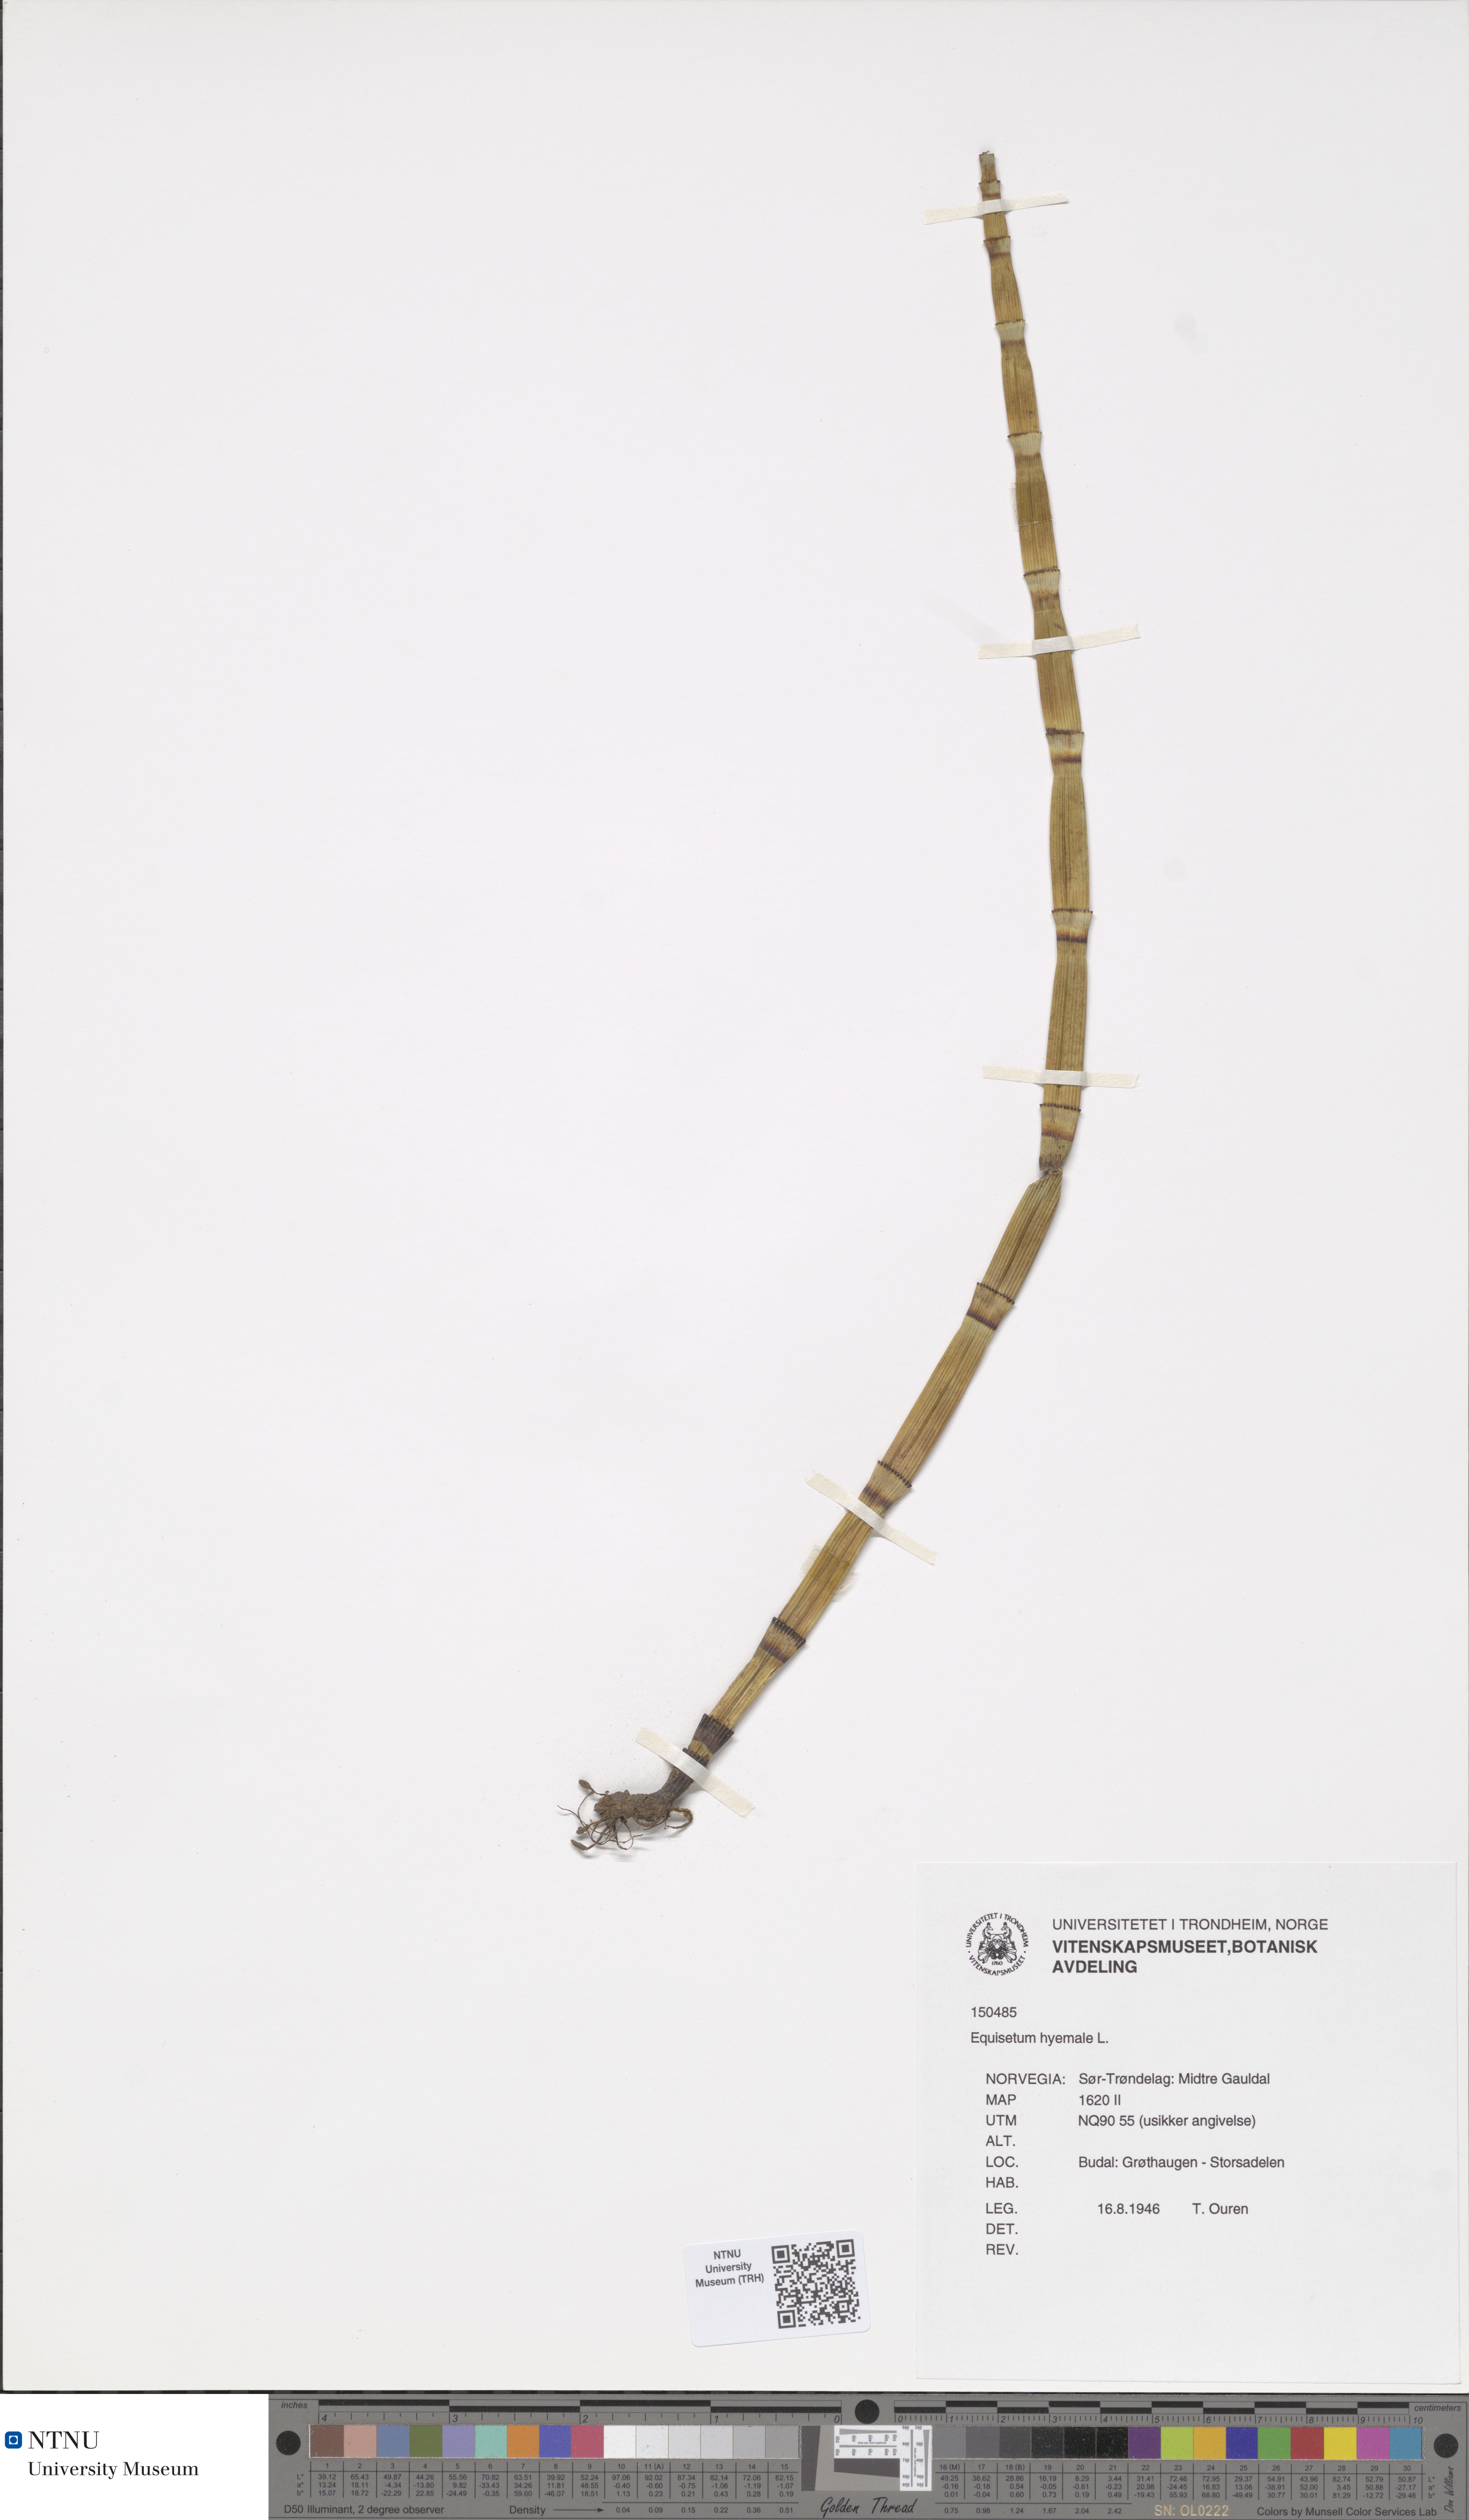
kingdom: Plantae
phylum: Tracheophyta
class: Polypodiopsida
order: Equisetales
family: Equisetaceae
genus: Equisetum
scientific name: Equisetum hyemale
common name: Rough horsetail
